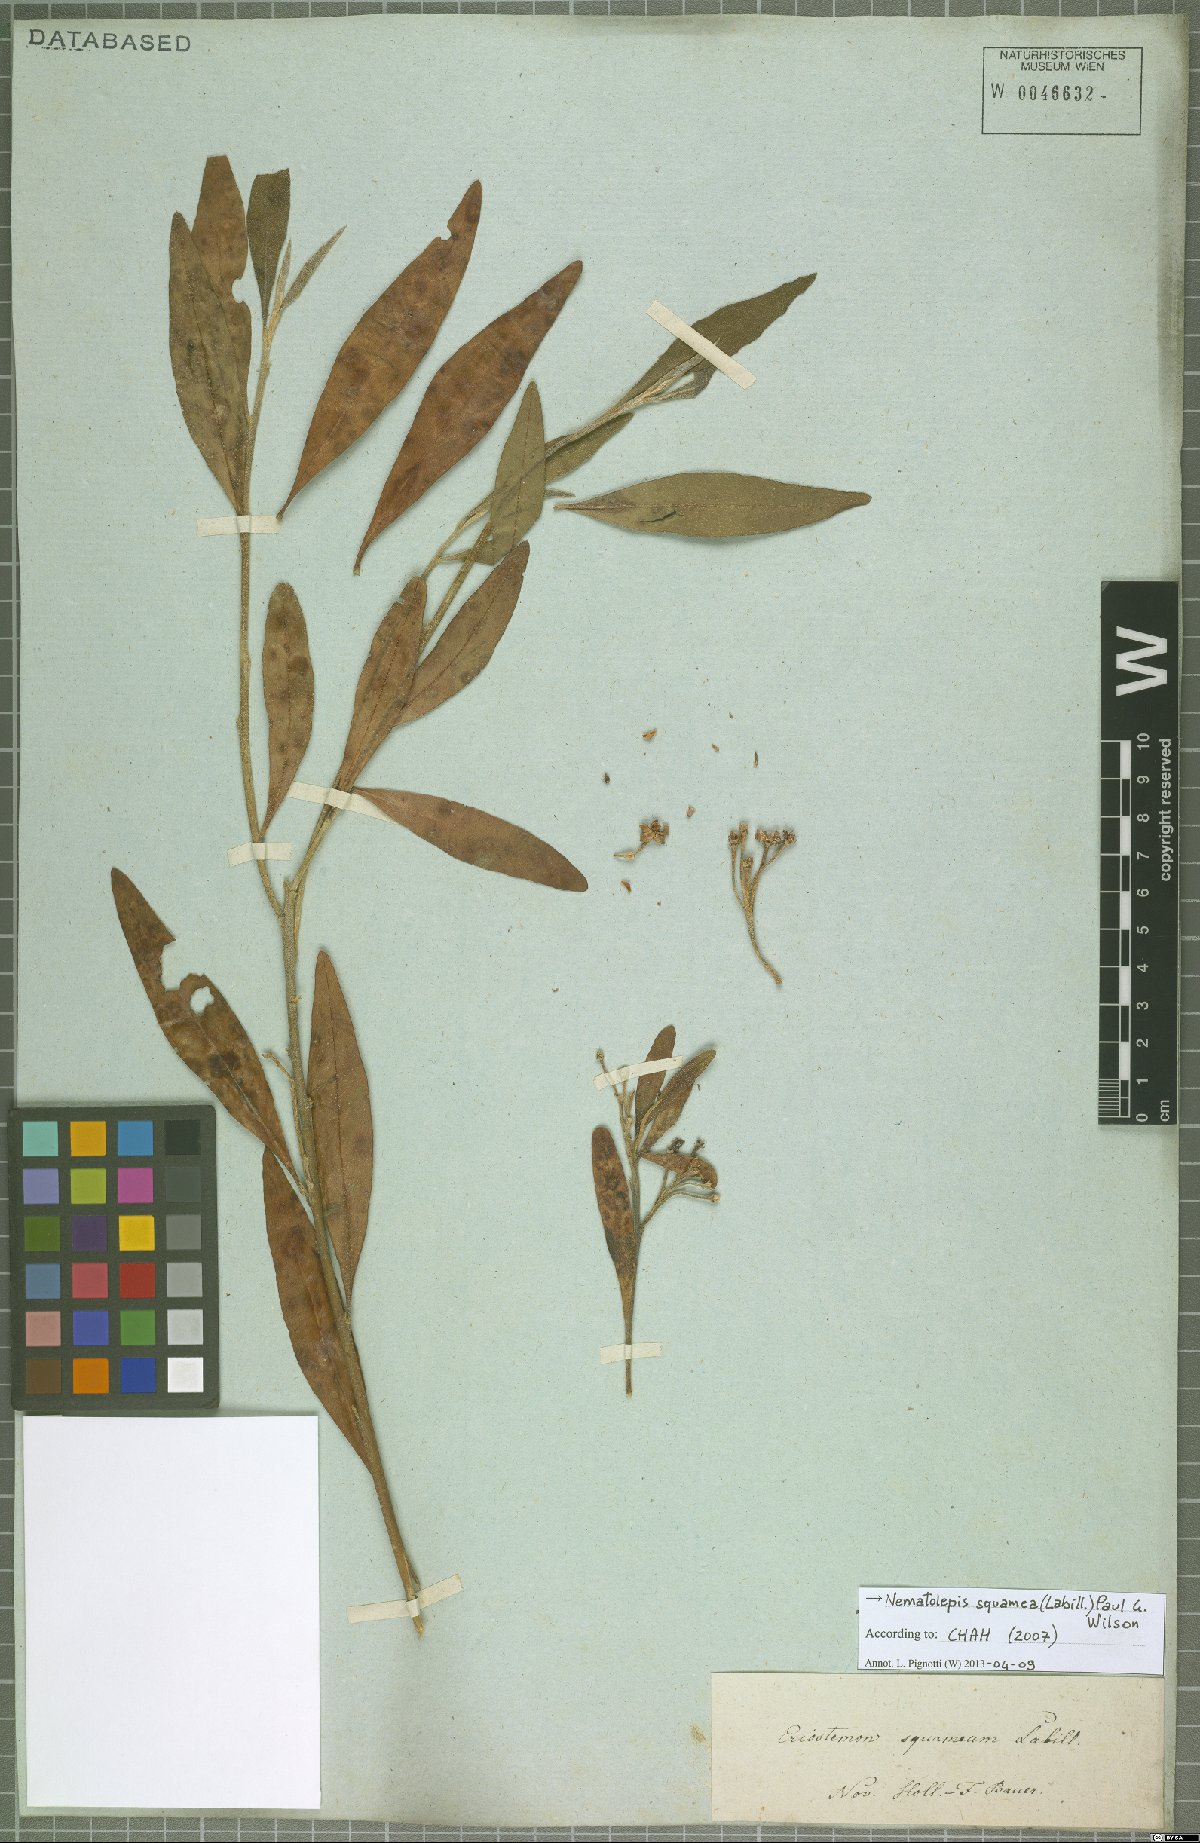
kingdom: Plantae
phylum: Tracheophyta
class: Magnoliopsida
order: Sapindales
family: Rutaceae
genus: Nematolepis
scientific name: Nematolepis squamea
